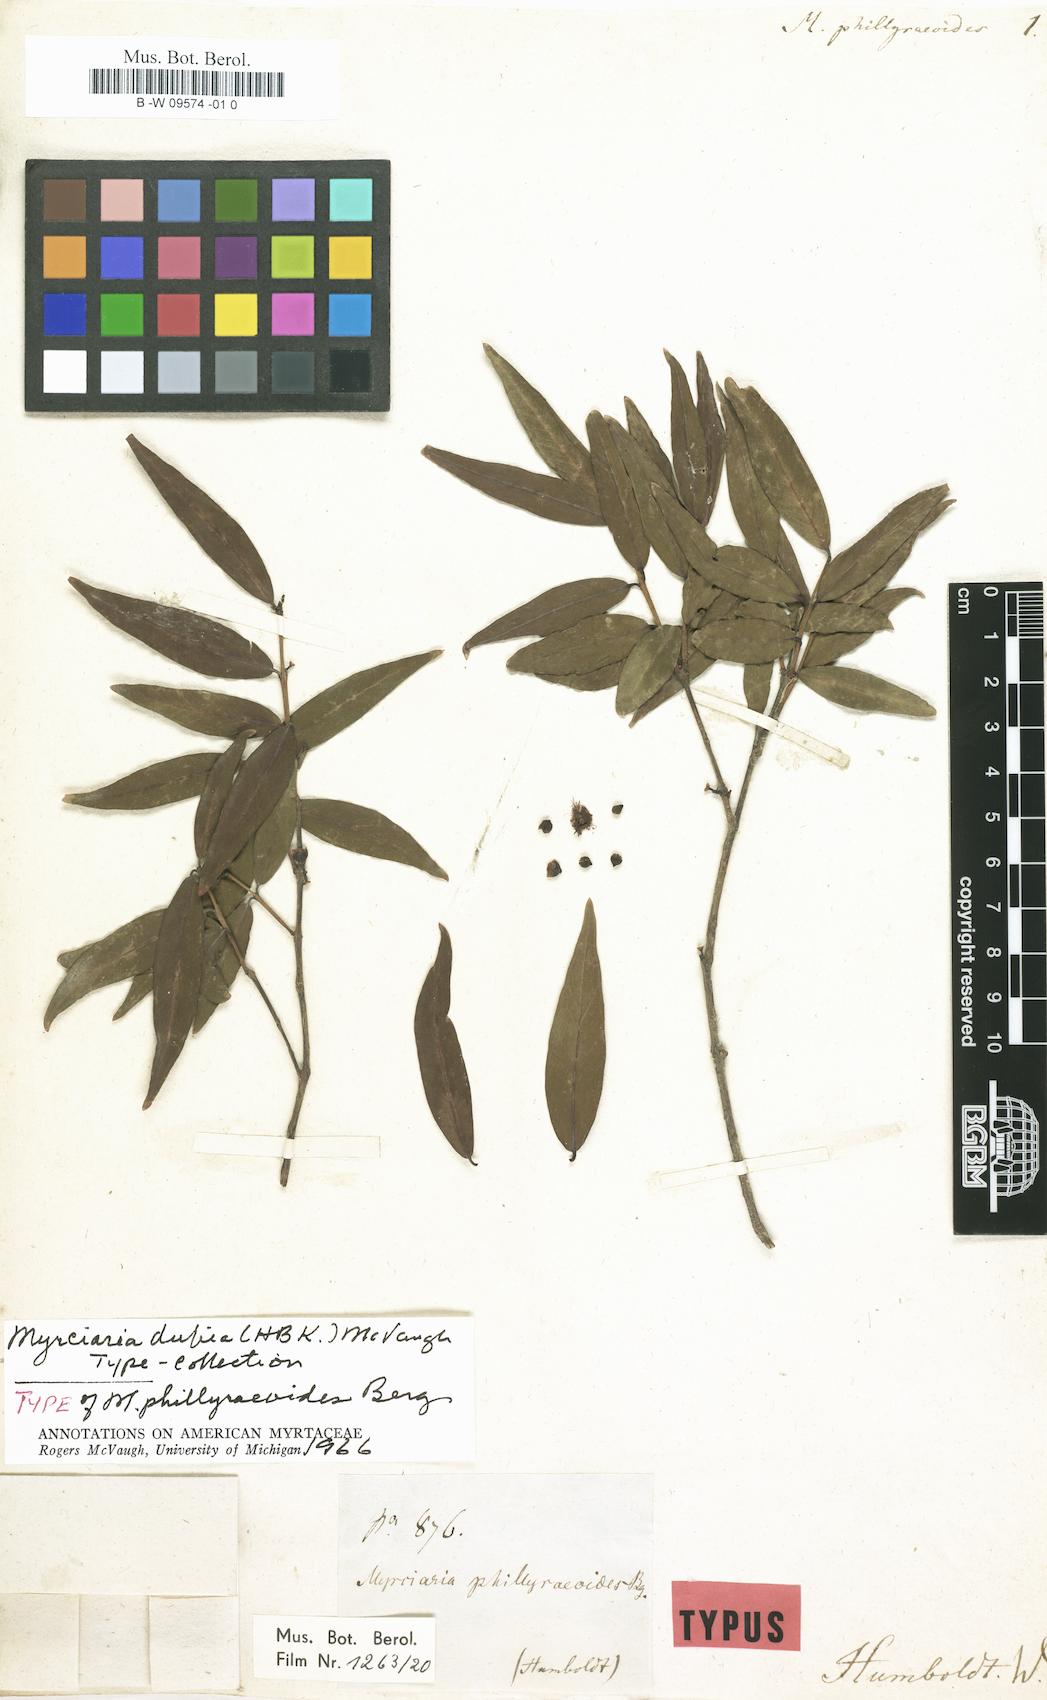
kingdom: Plantae
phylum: Tracheophyta
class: Magnoliopsida
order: Myrtales
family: Myrtaceae
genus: Myrtus
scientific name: Myrtus phillyreoides
